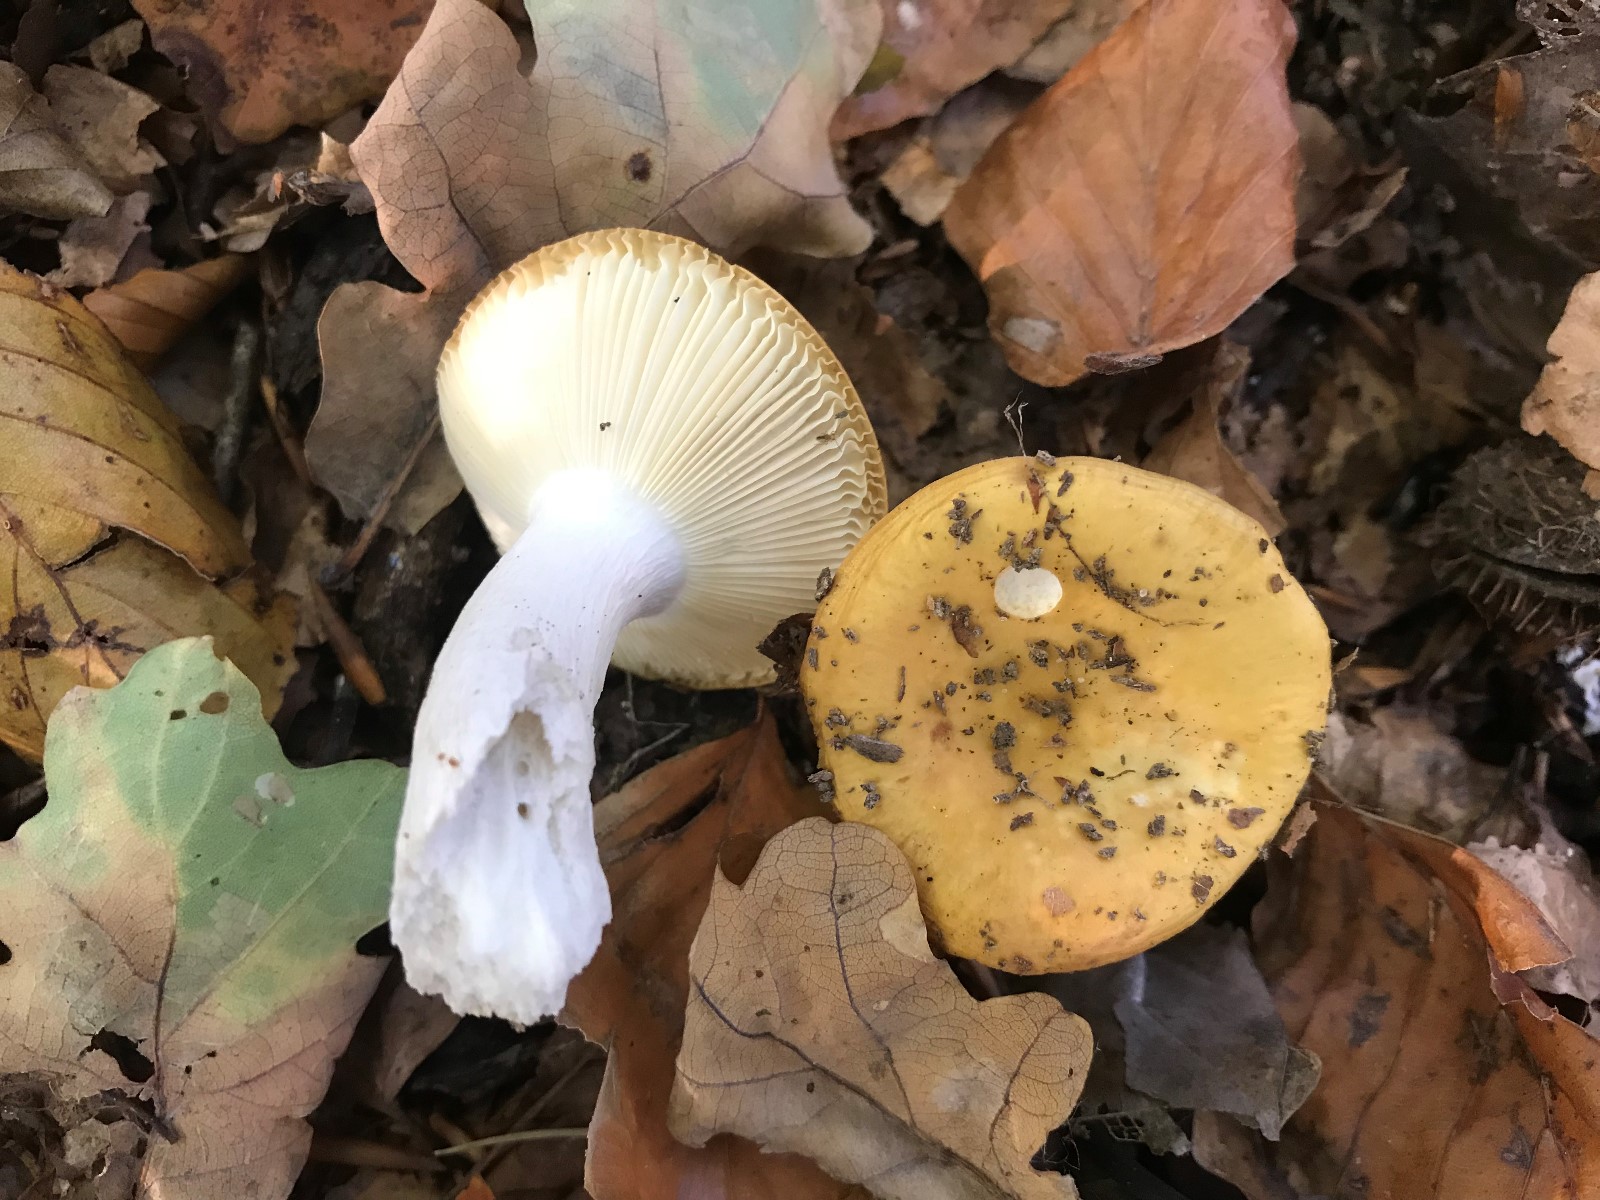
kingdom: Fungi
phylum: Basidiomycota
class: Agaricomycetes
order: Russulales
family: Russulaceae
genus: Russula
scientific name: Russula ochroleuca
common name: okkergul skørhat
